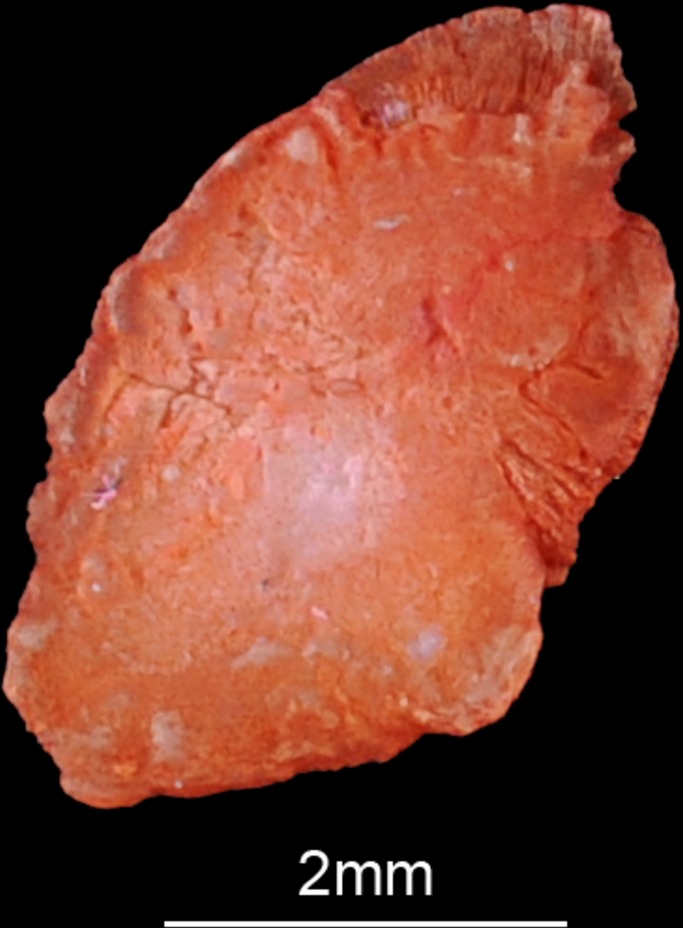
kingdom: Animalia
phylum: Chordata
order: Siluriformes
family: Claroteidae
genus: Auchenoglanis
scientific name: Auchenoglanis occidentalis
